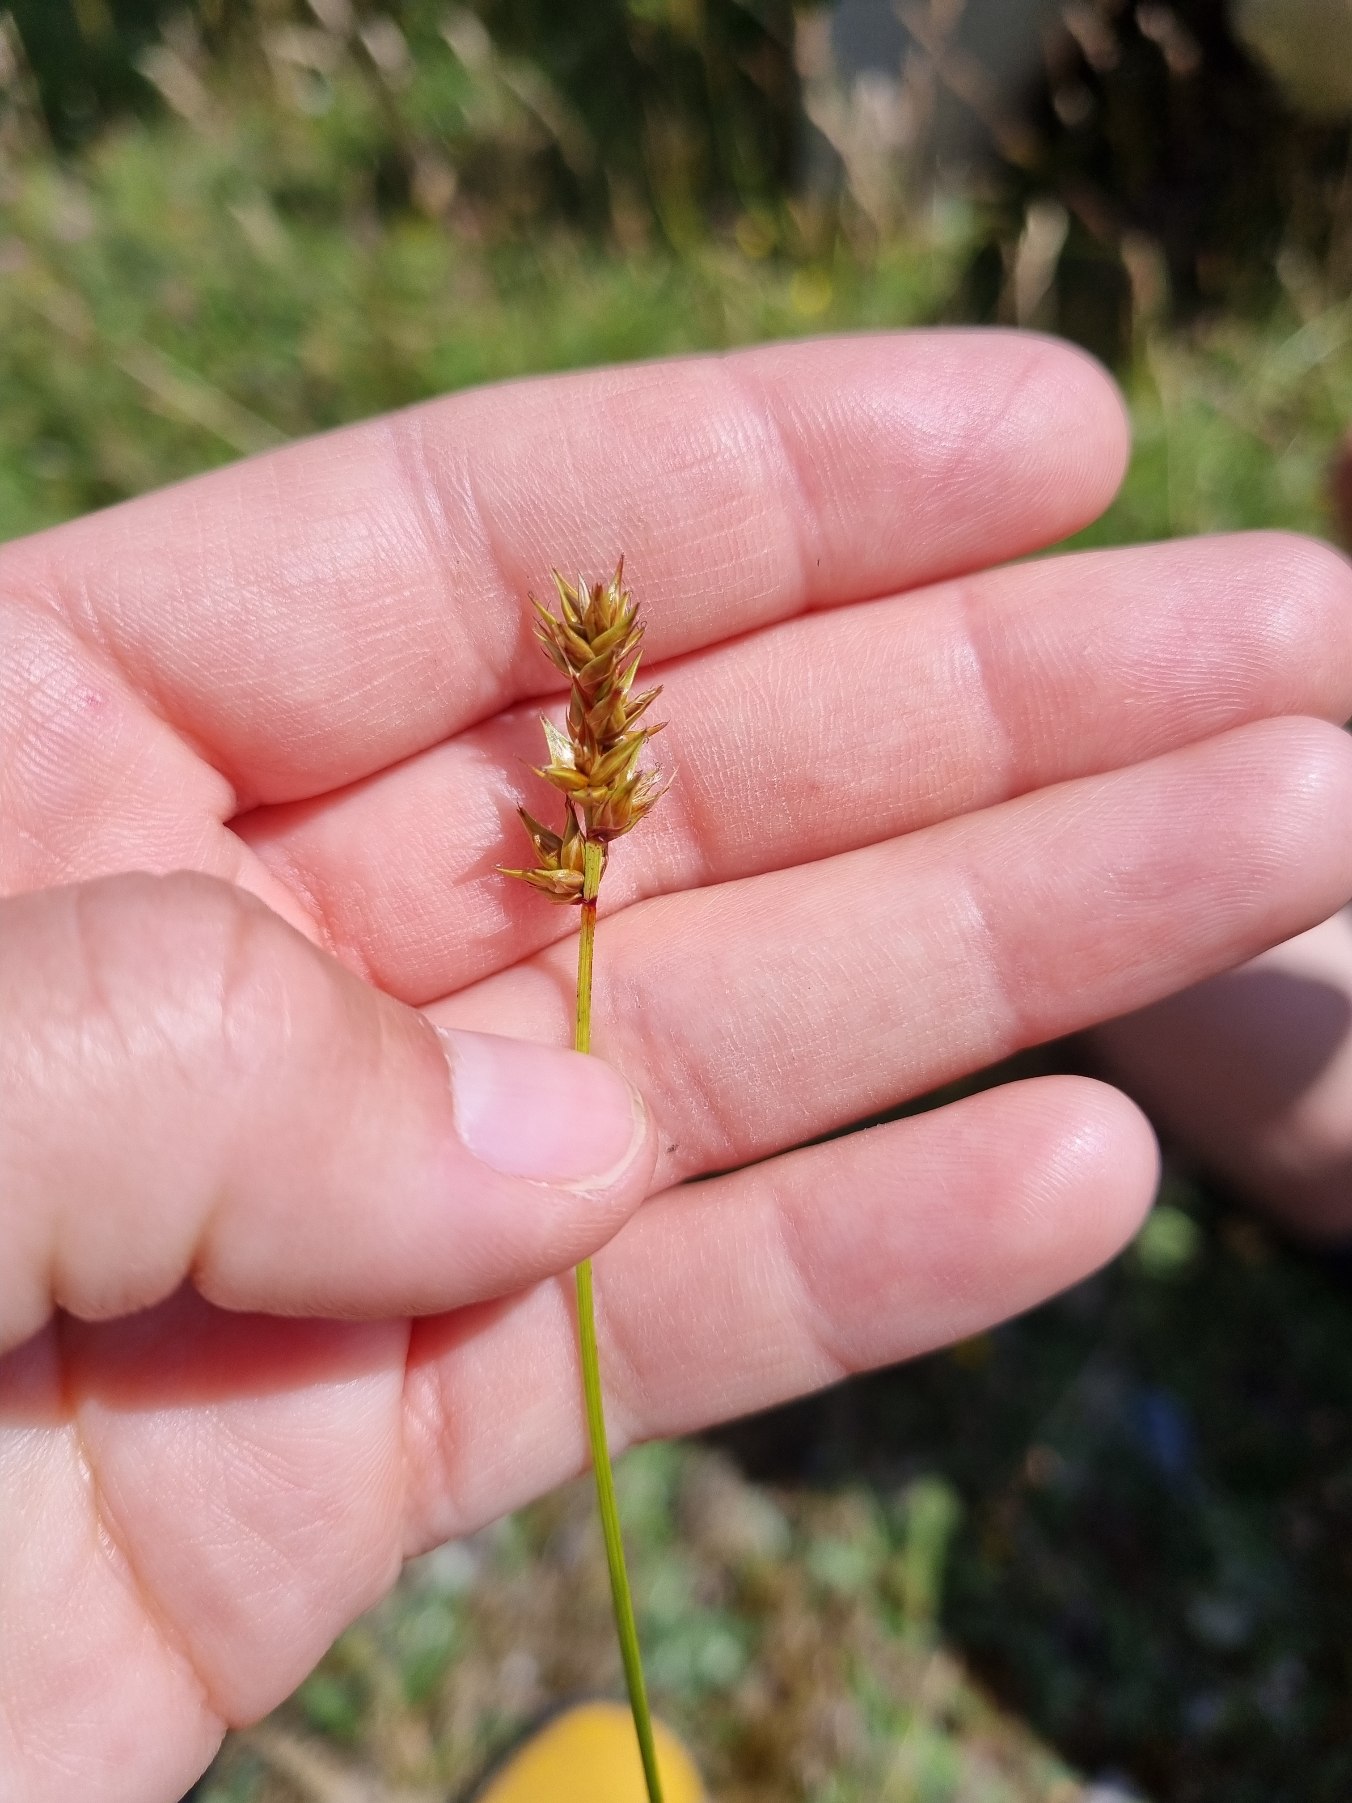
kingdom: Plantae
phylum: Tracheophyta
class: Liliopsida
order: Poales
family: Cyperaceae
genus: Carex
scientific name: Carex spicata
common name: Spidskapslet star
